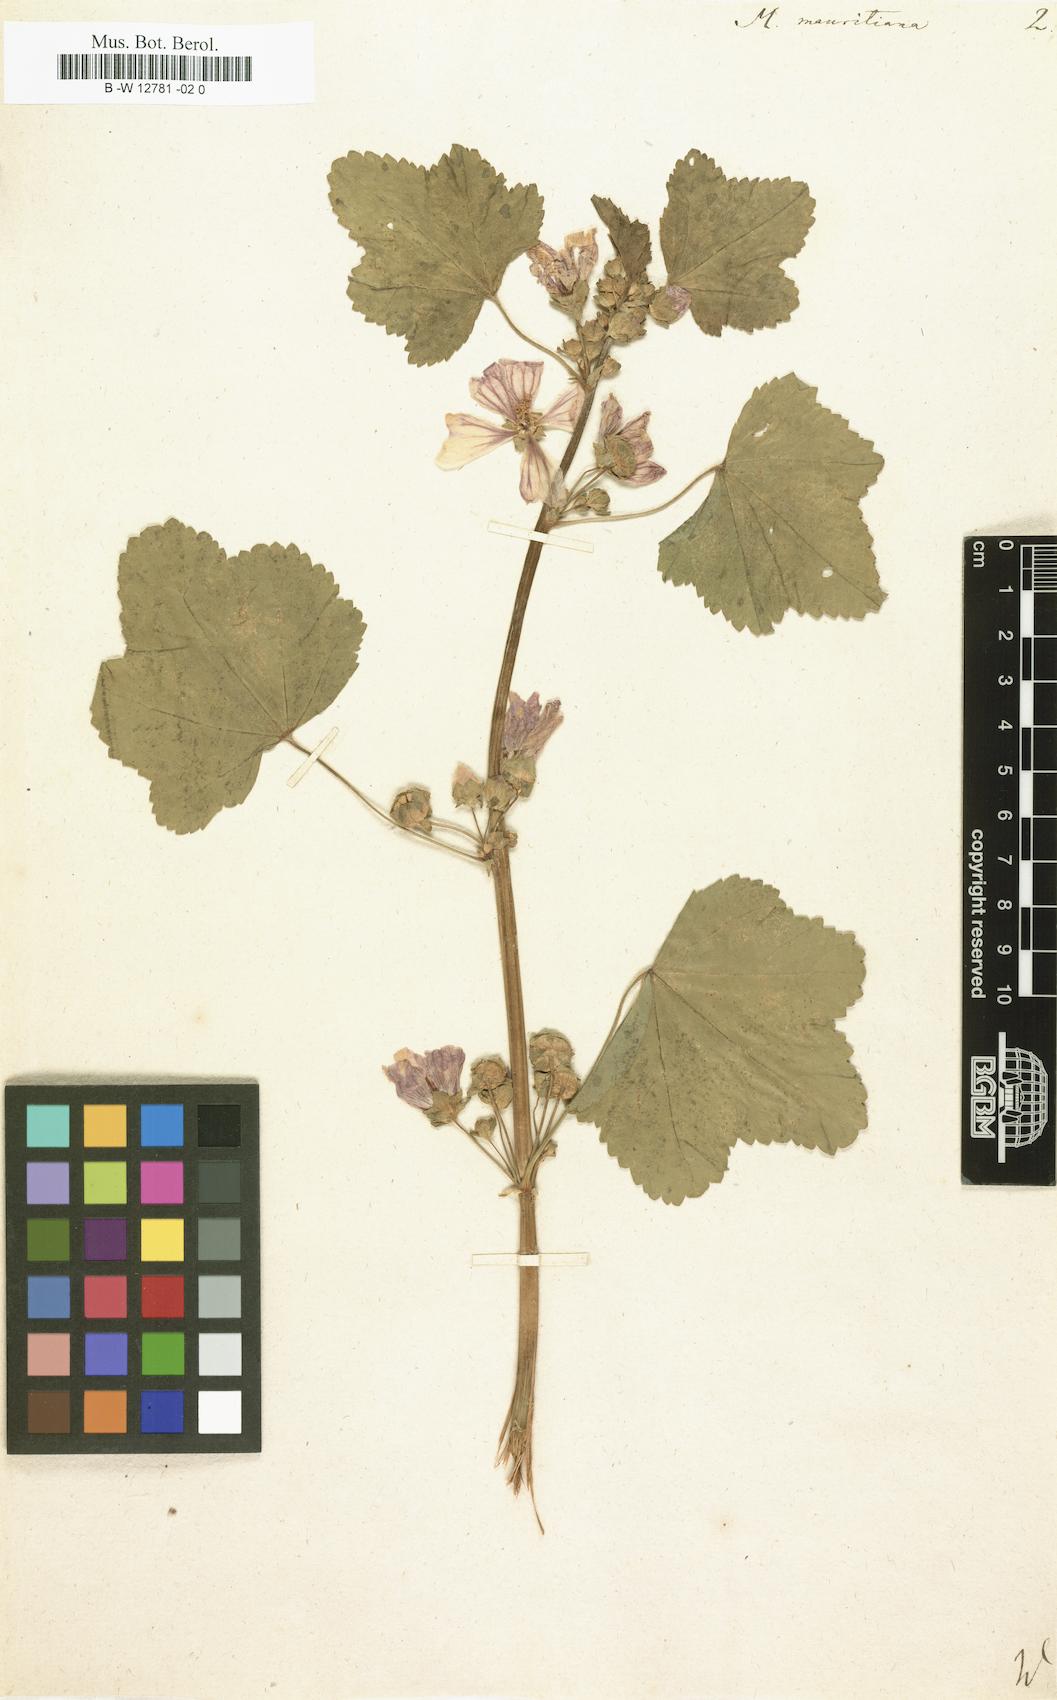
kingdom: Plantae
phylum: Tracheophyta
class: Magnoliopsida
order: Malvales
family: Malvaceae
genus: Malva
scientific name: Malva
